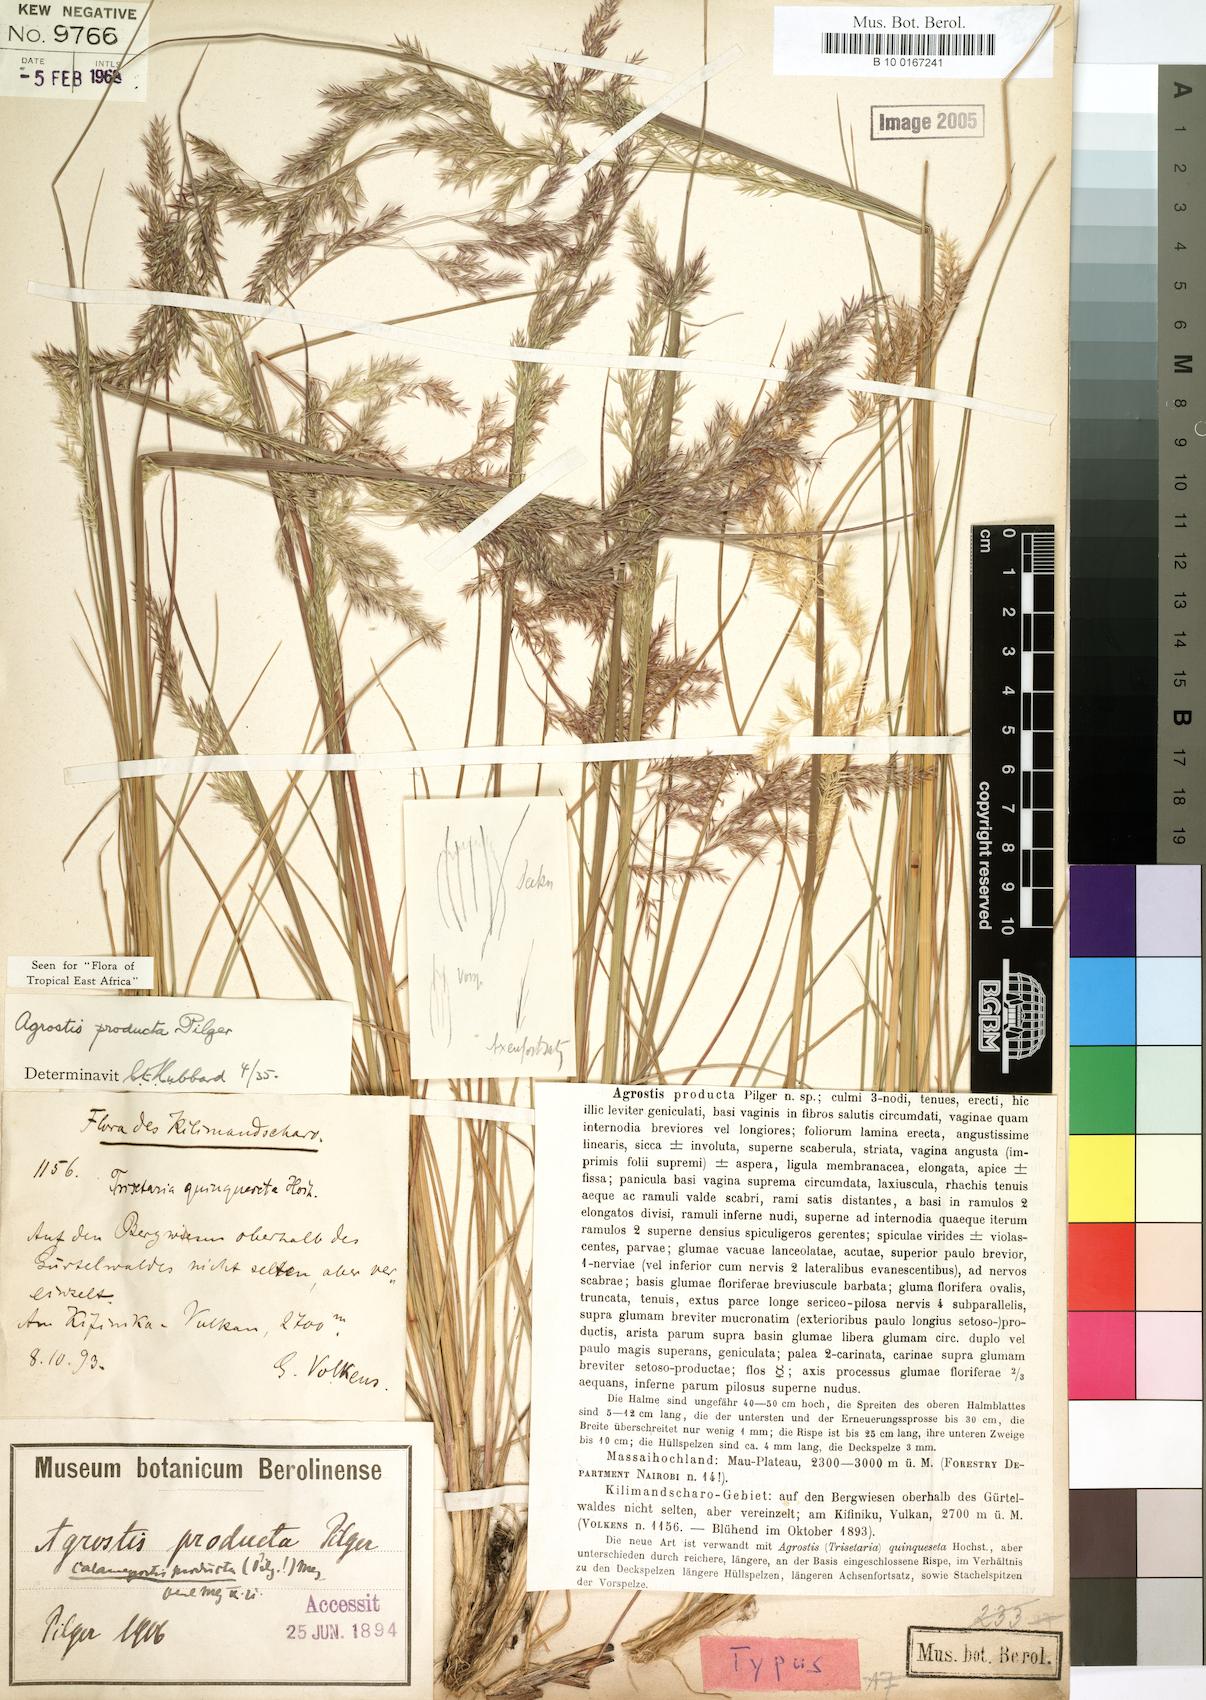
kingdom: Plantae
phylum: Tracheophyta
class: Liliopsida
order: Poales
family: Poaceae
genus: Agrostis
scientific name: Agrostis producta
